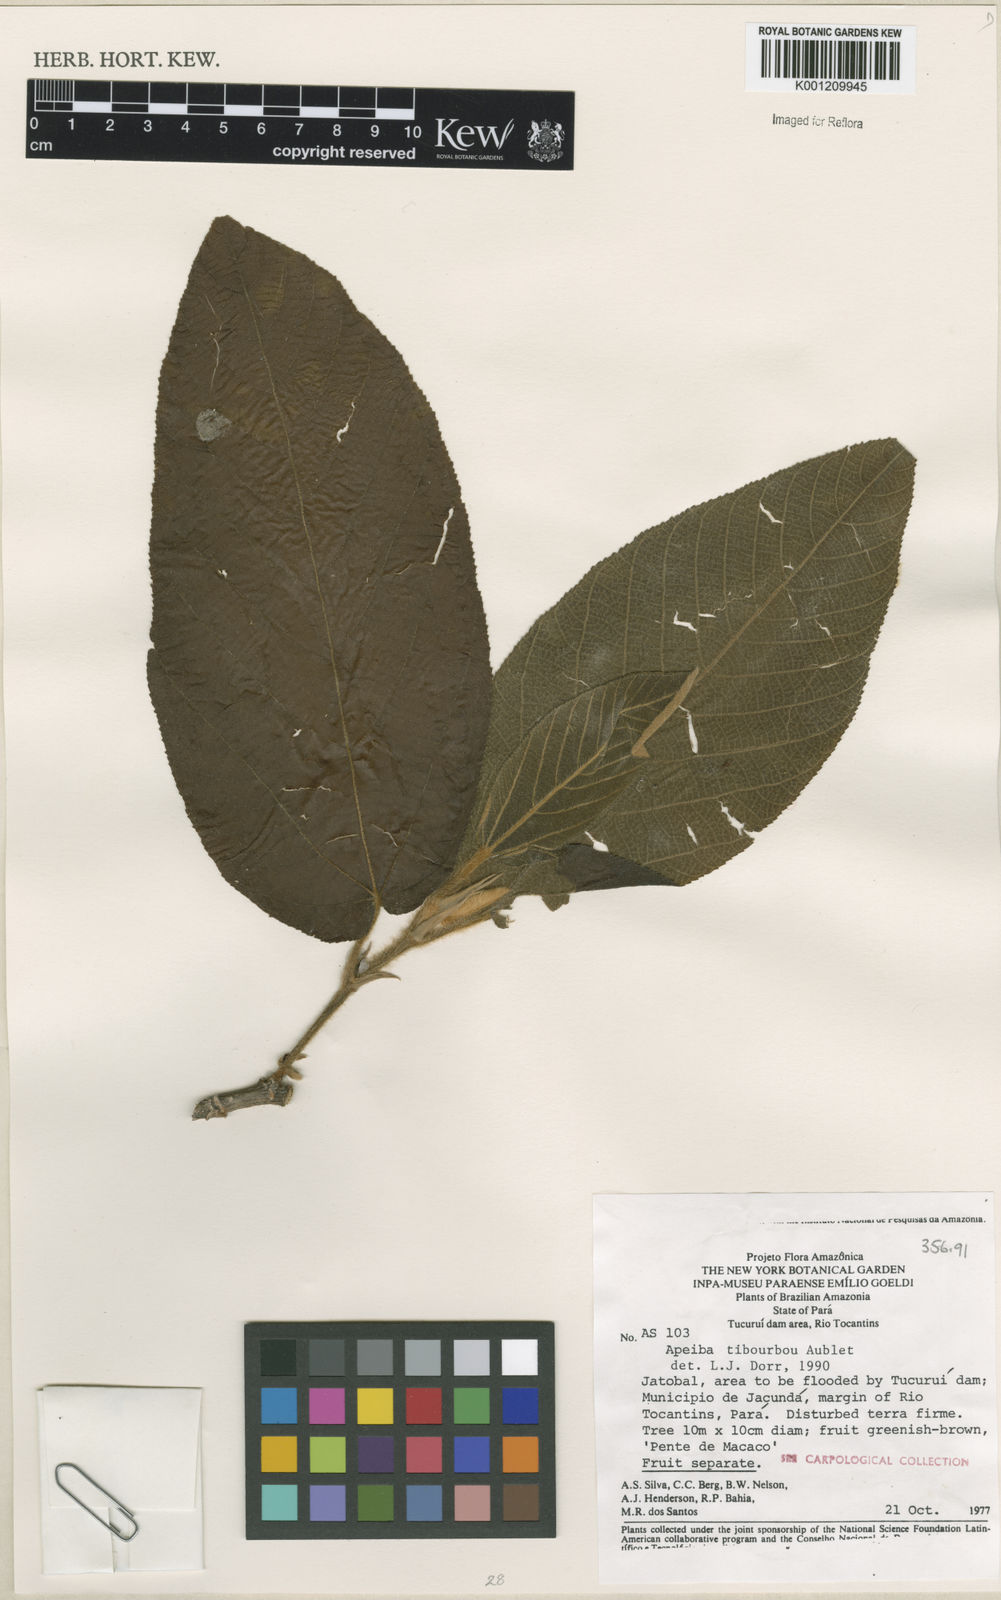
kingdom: Plantae
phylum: Tracheophyta
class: Magnoliopsida
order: Malvales
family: Malvaceae
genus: Apeiba
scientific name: Apeiba tibourbou
